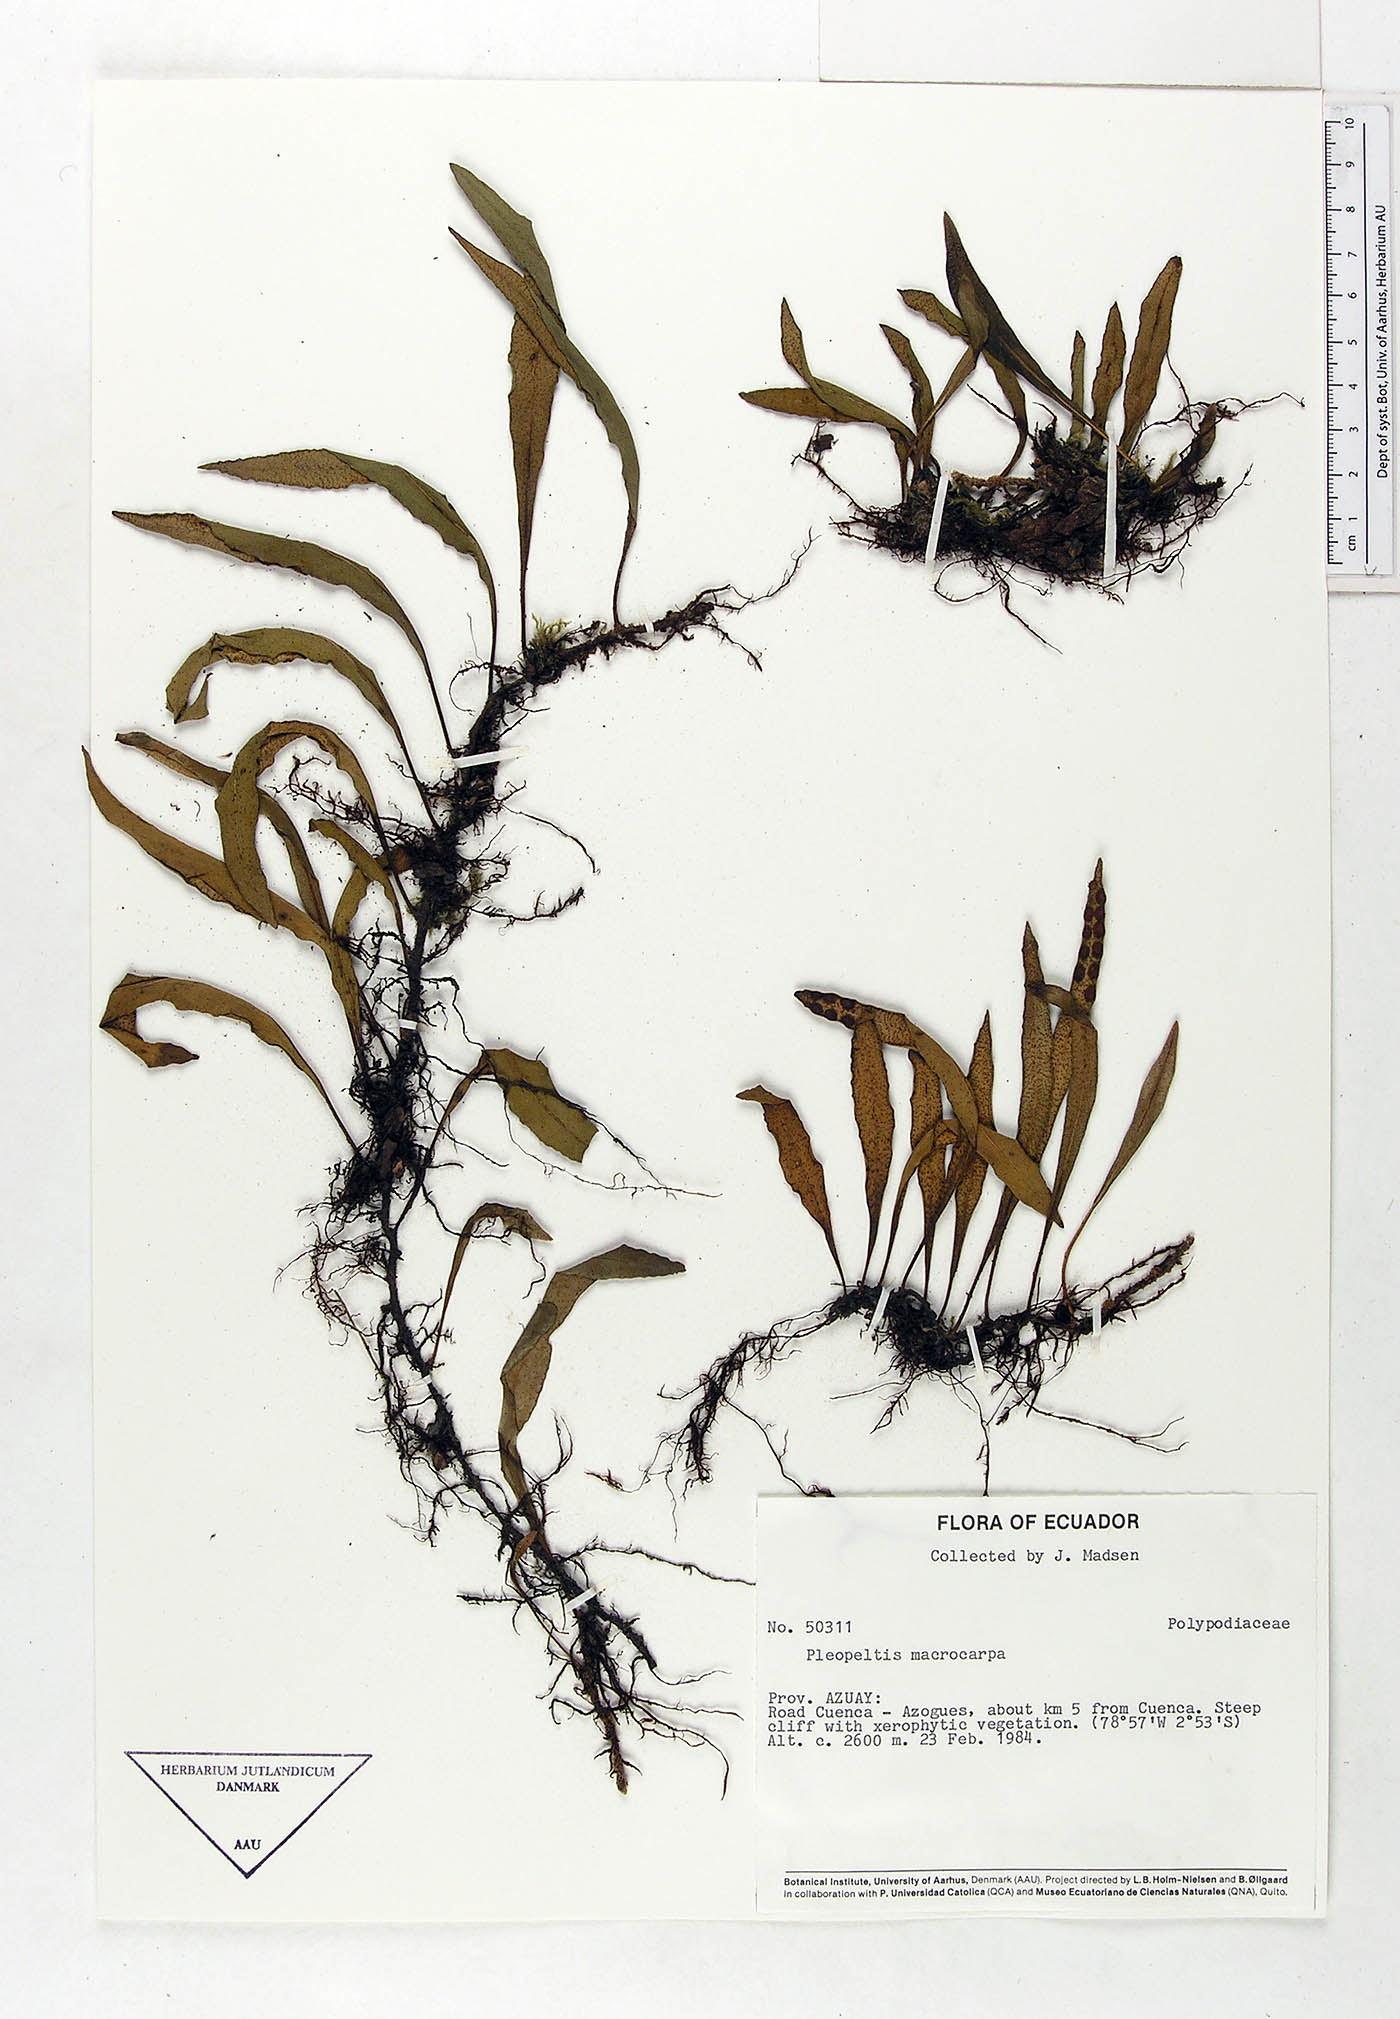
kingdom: Plantae
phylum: Tracheophyta
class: Polypodiopsida
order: Polypodiales
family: Polypodiaceae
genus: Pleopeltis
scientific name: Pleopeltis macrocarpa
